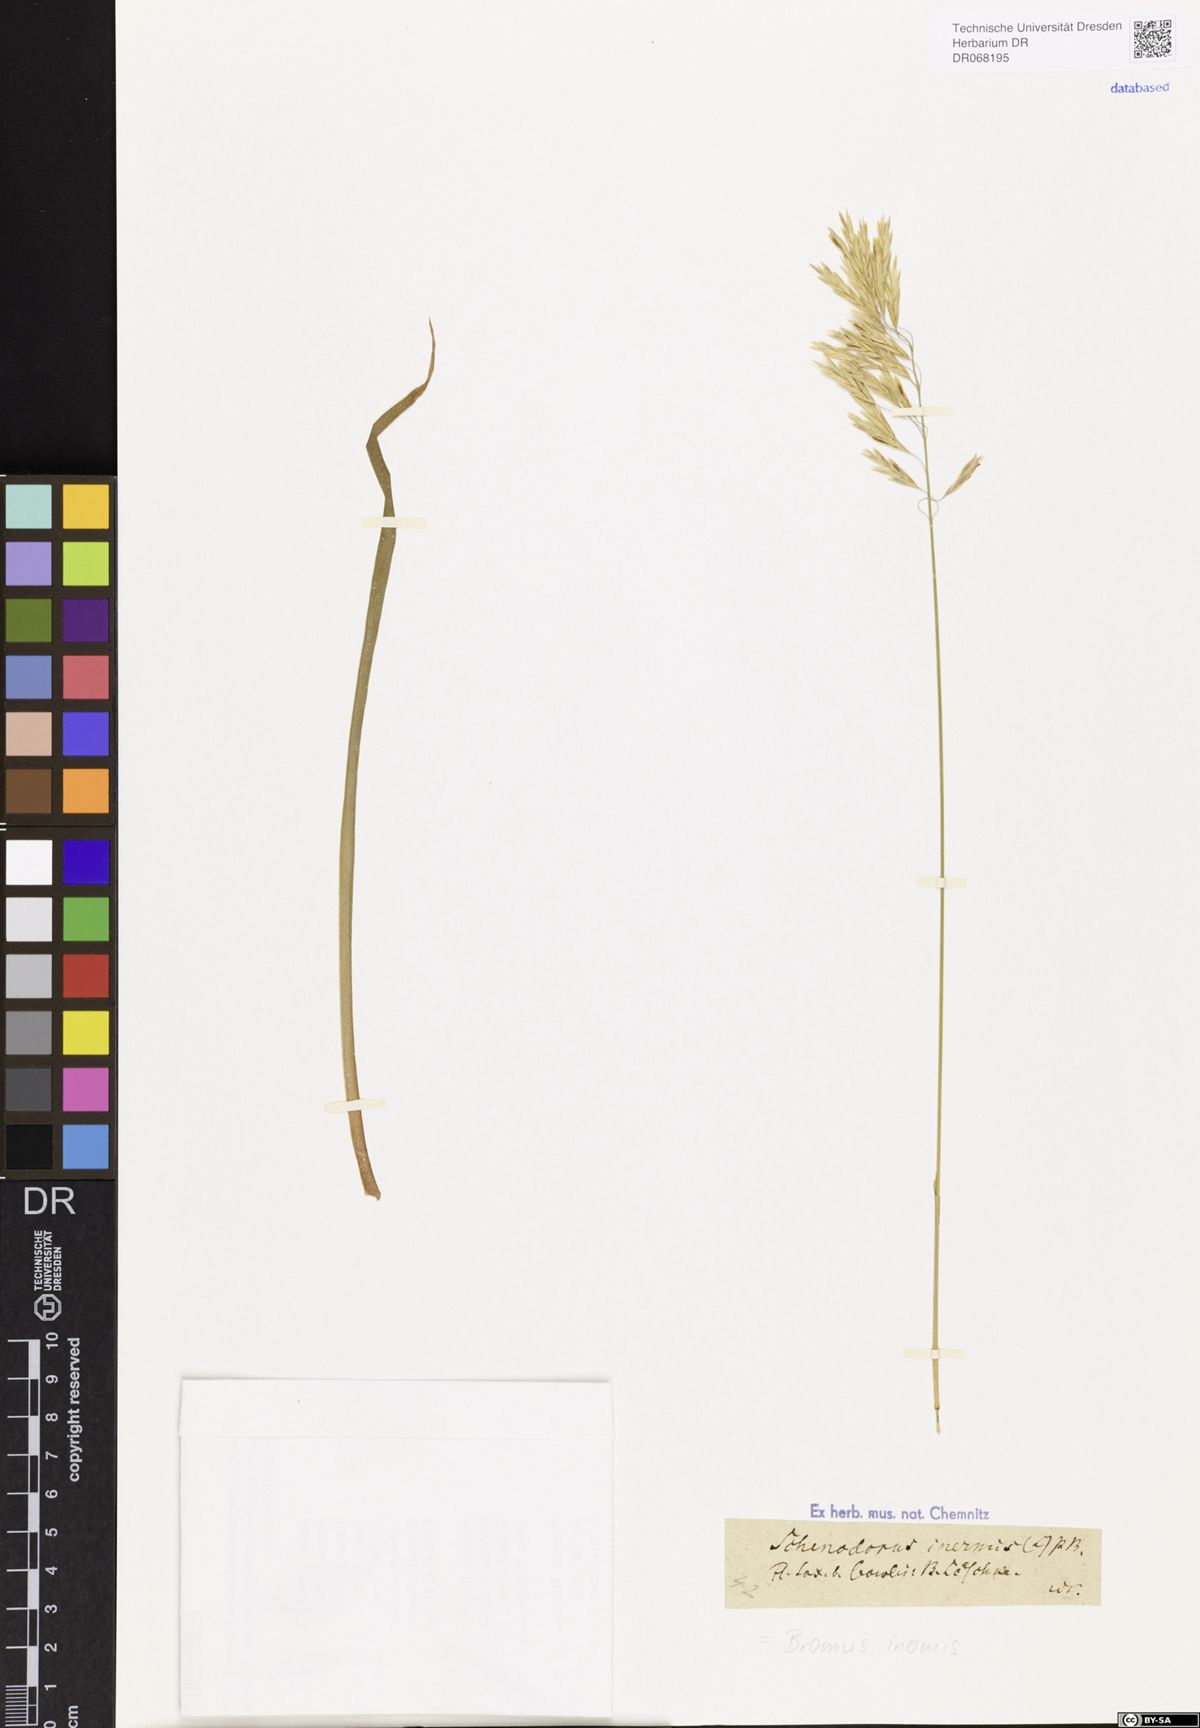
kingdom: Plantae
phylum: Tracheophyta
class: Liliopsida
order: Poales
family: Poaceae
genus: Bromus
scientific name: Bromus inermis
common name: Smooth brome
